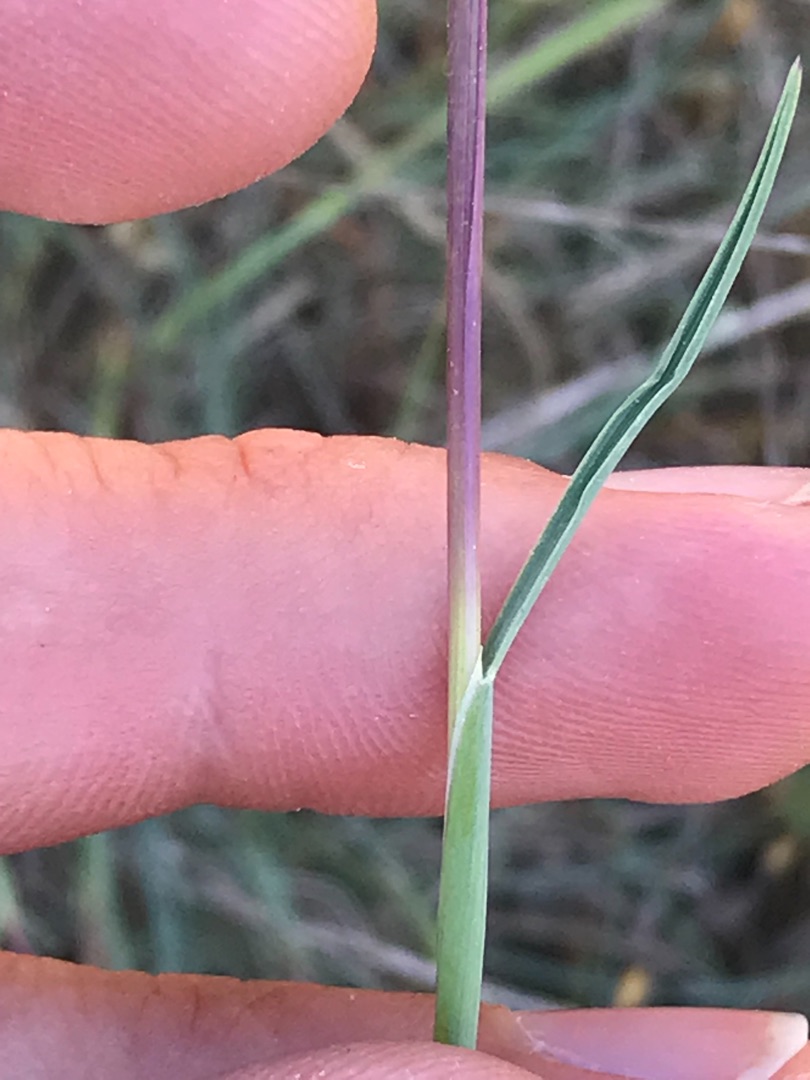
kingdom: Plantae
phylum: Tracheophyta
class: Liliopsida
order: Poales
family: Poaceae
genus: Koeleria
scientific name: Koeleria glauca
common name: Klit-kambunke
